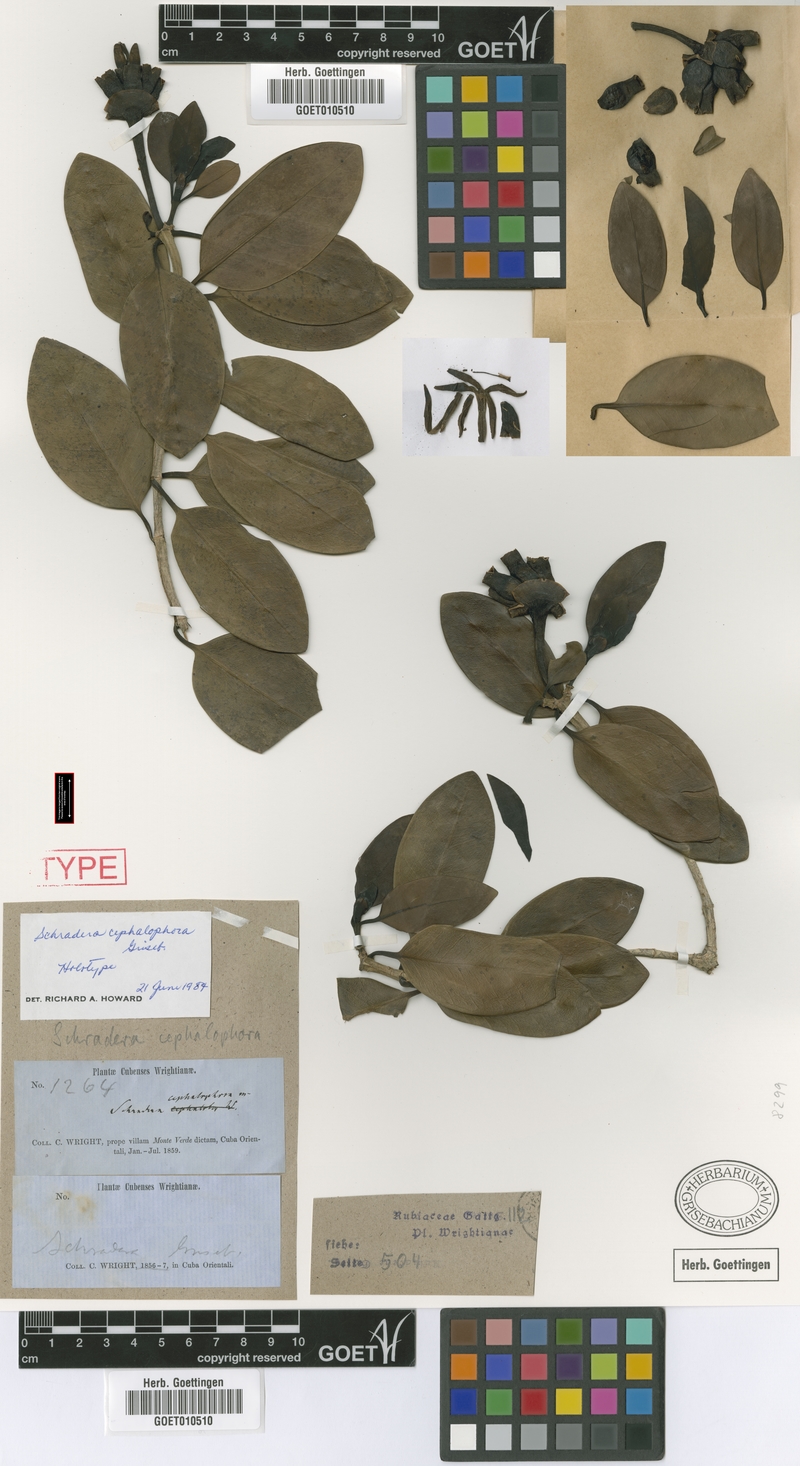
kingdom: Plantae
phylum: Tracheophyta
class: Magnoliopsida
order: Gentianales
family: Rubiaceae
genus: Schradera
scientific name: Schradera exotica
